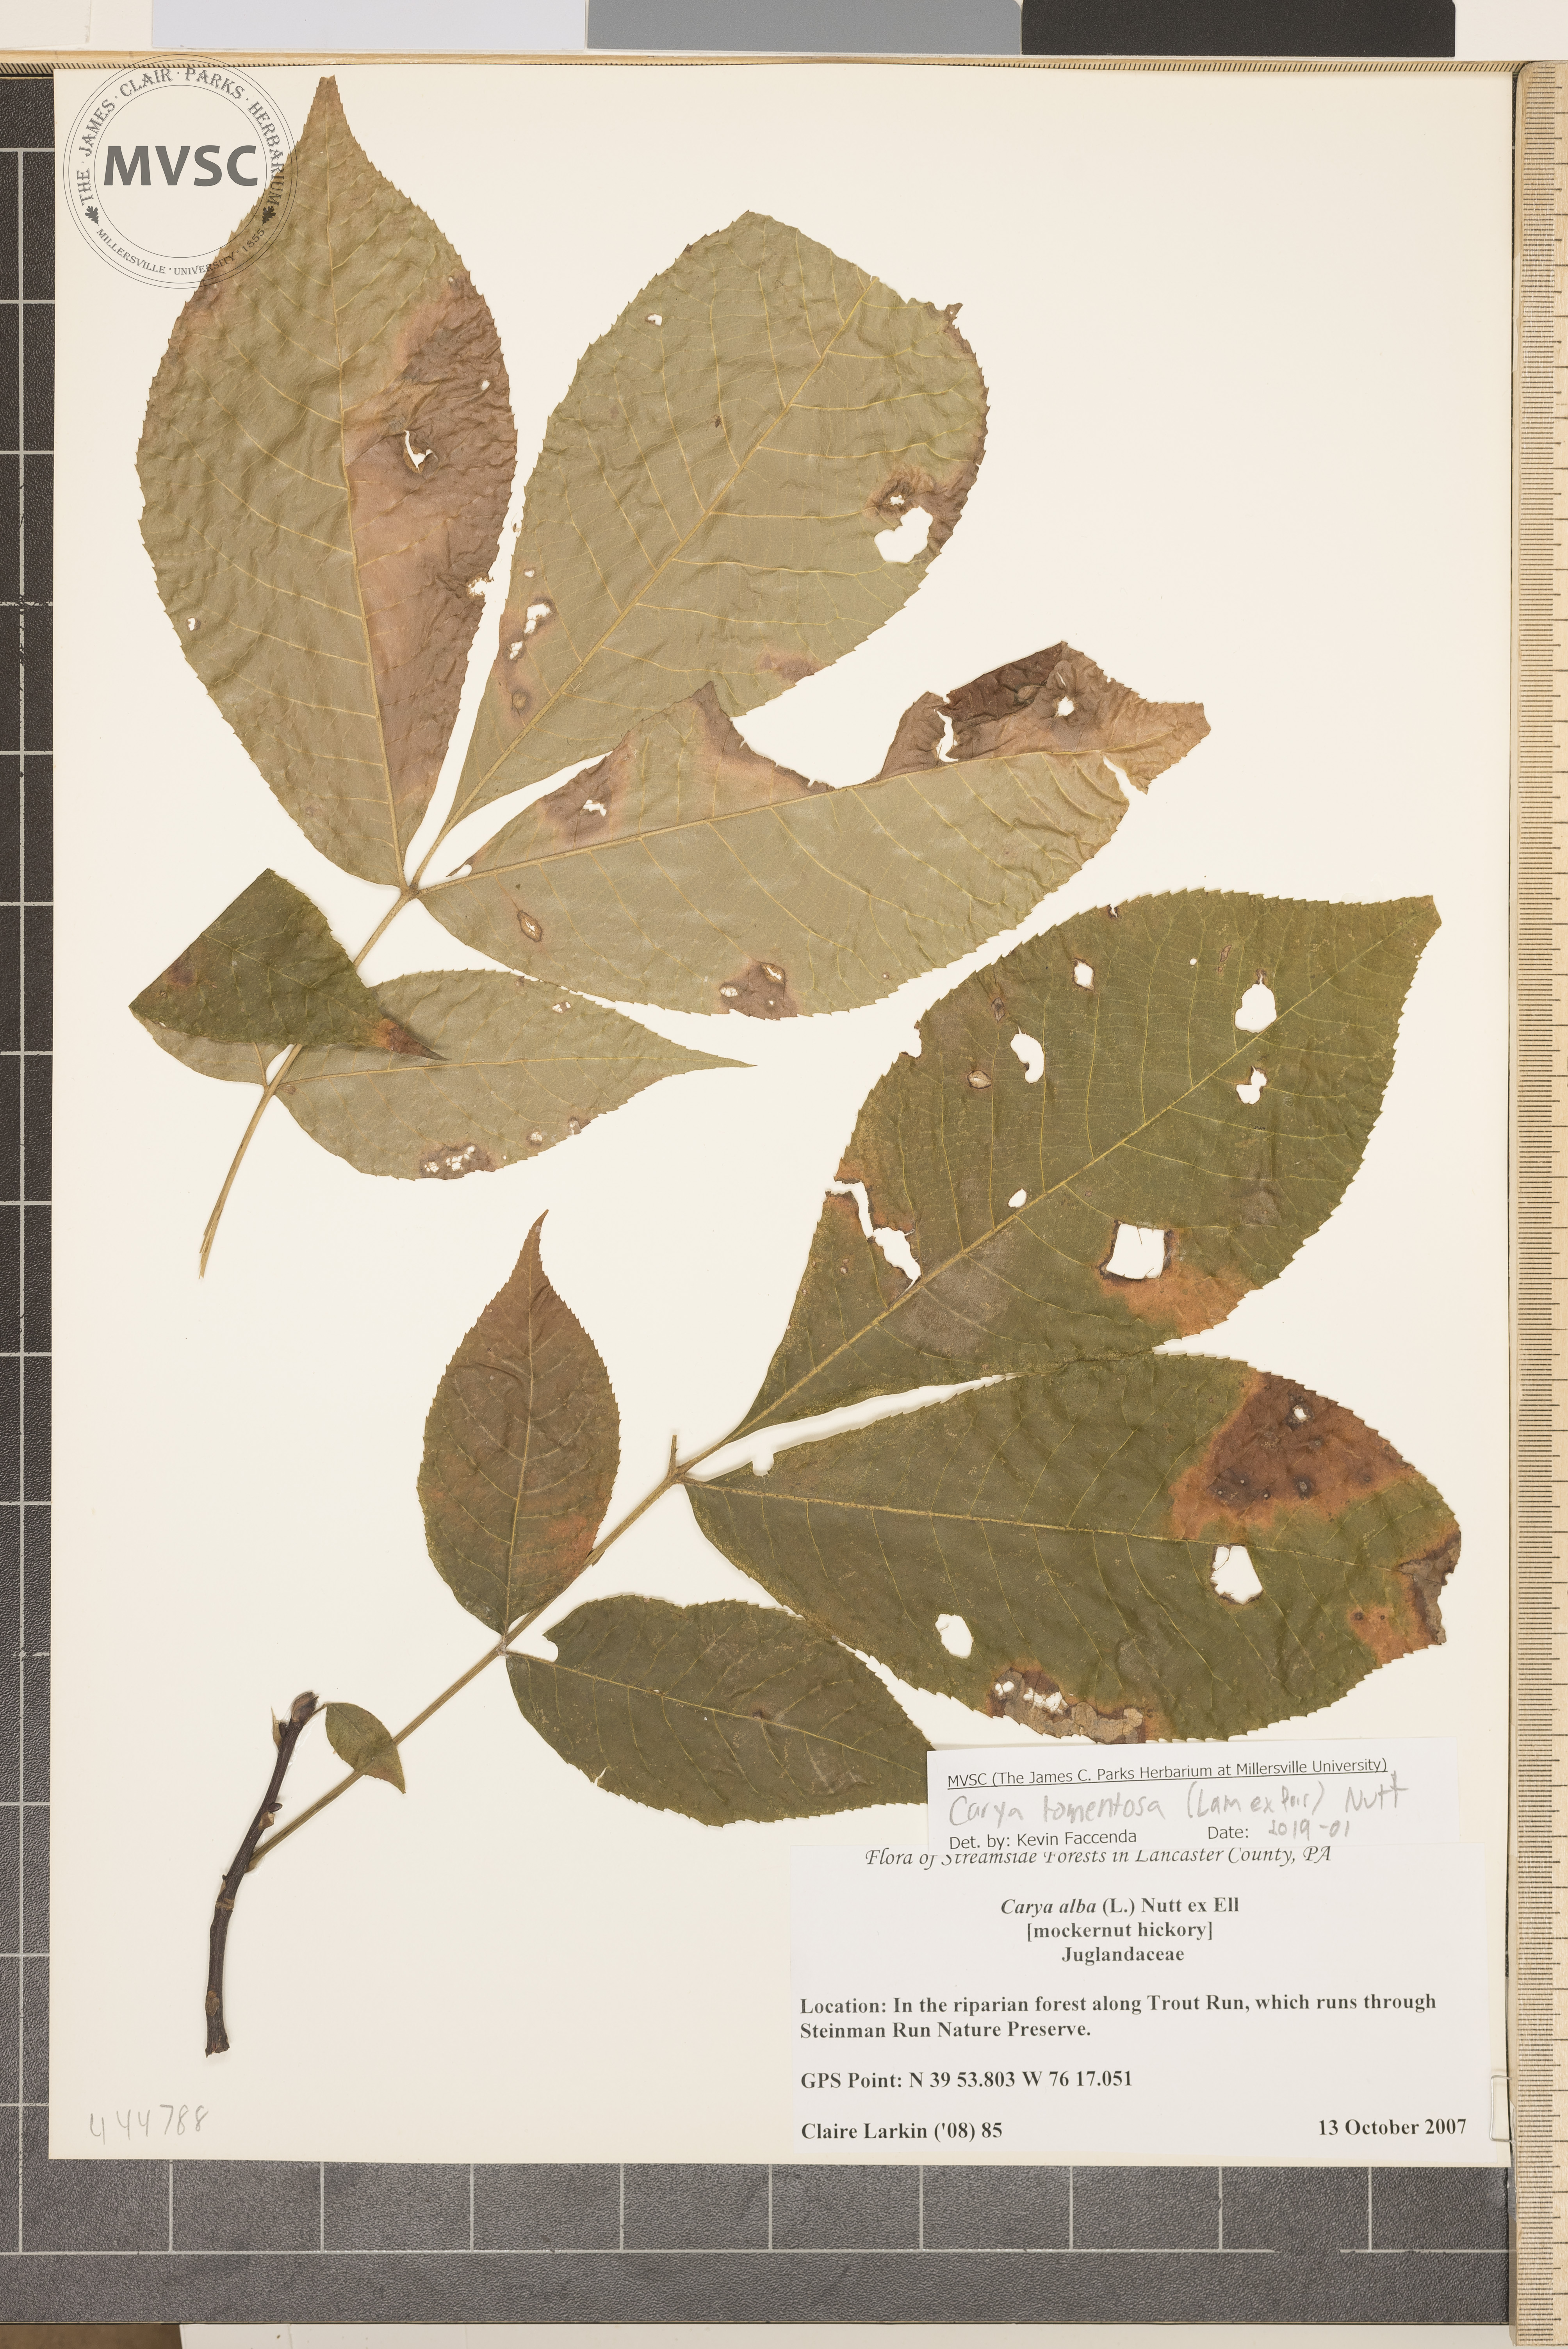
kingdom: Plantae
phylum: Tracheophyta
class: Magnoliopsida
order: Fagales
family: Juglandaceae
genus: Carya
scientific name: Carya alba
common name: Mockernut hickory
